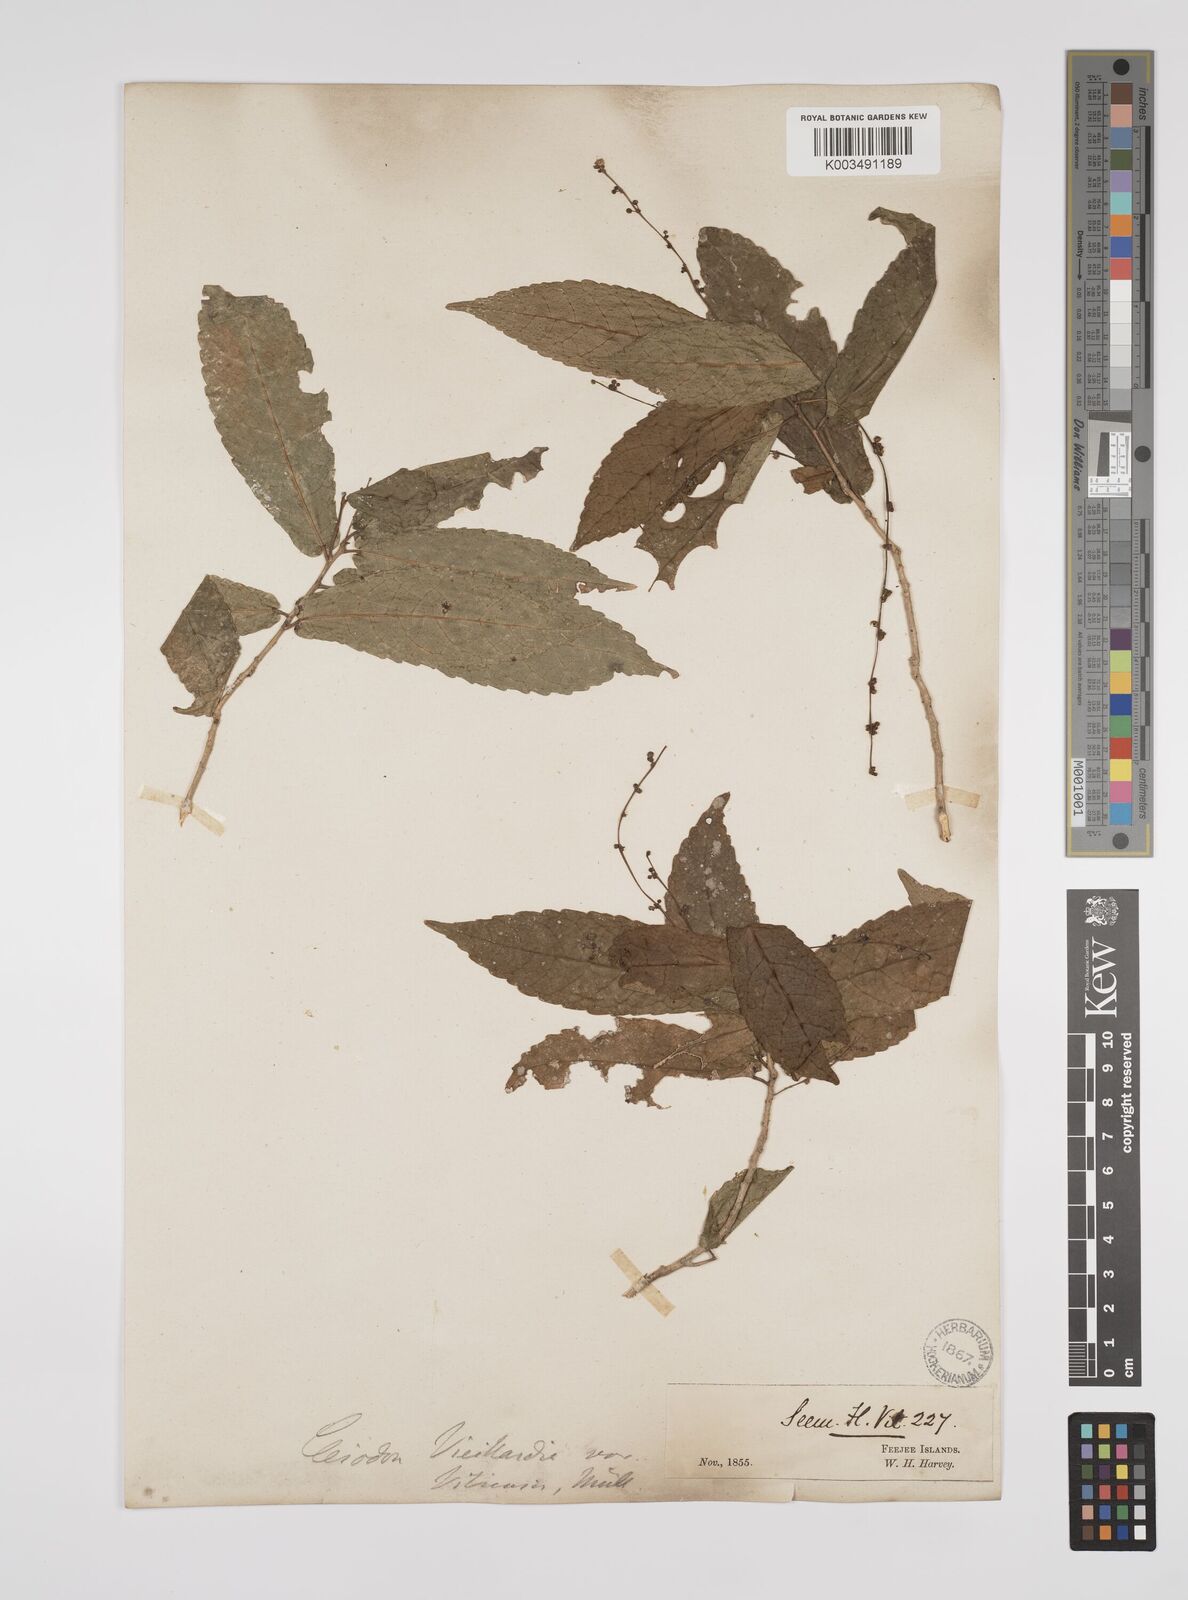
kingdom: Plantae
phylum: Tracheophyta
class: Magnoliopsida
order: Malpighiales
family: Euphorbiaceae
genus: Cleidion
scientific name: Cleidion leptostachyum
